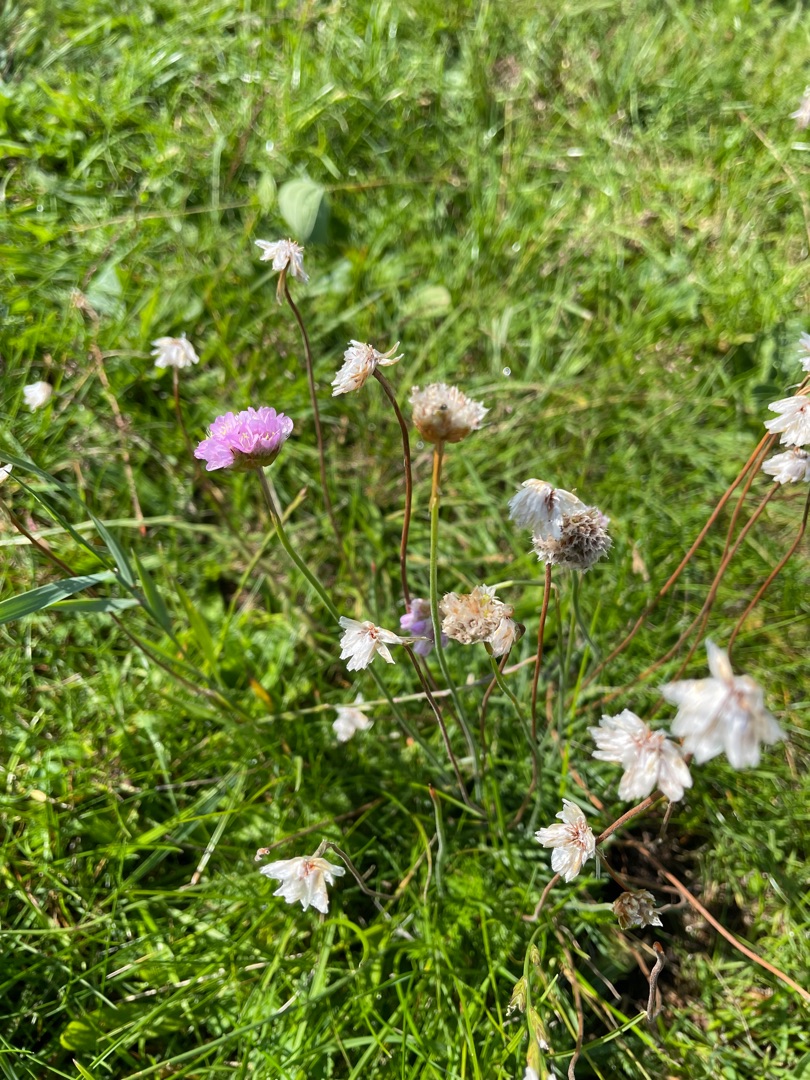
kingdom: Plantae
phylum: Tracheophyta
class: Magnoliopsida
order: Caryophyllales
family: Plumbaginaceae
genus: Armeria
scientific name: Armeria maritima
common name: Engelskgræs
